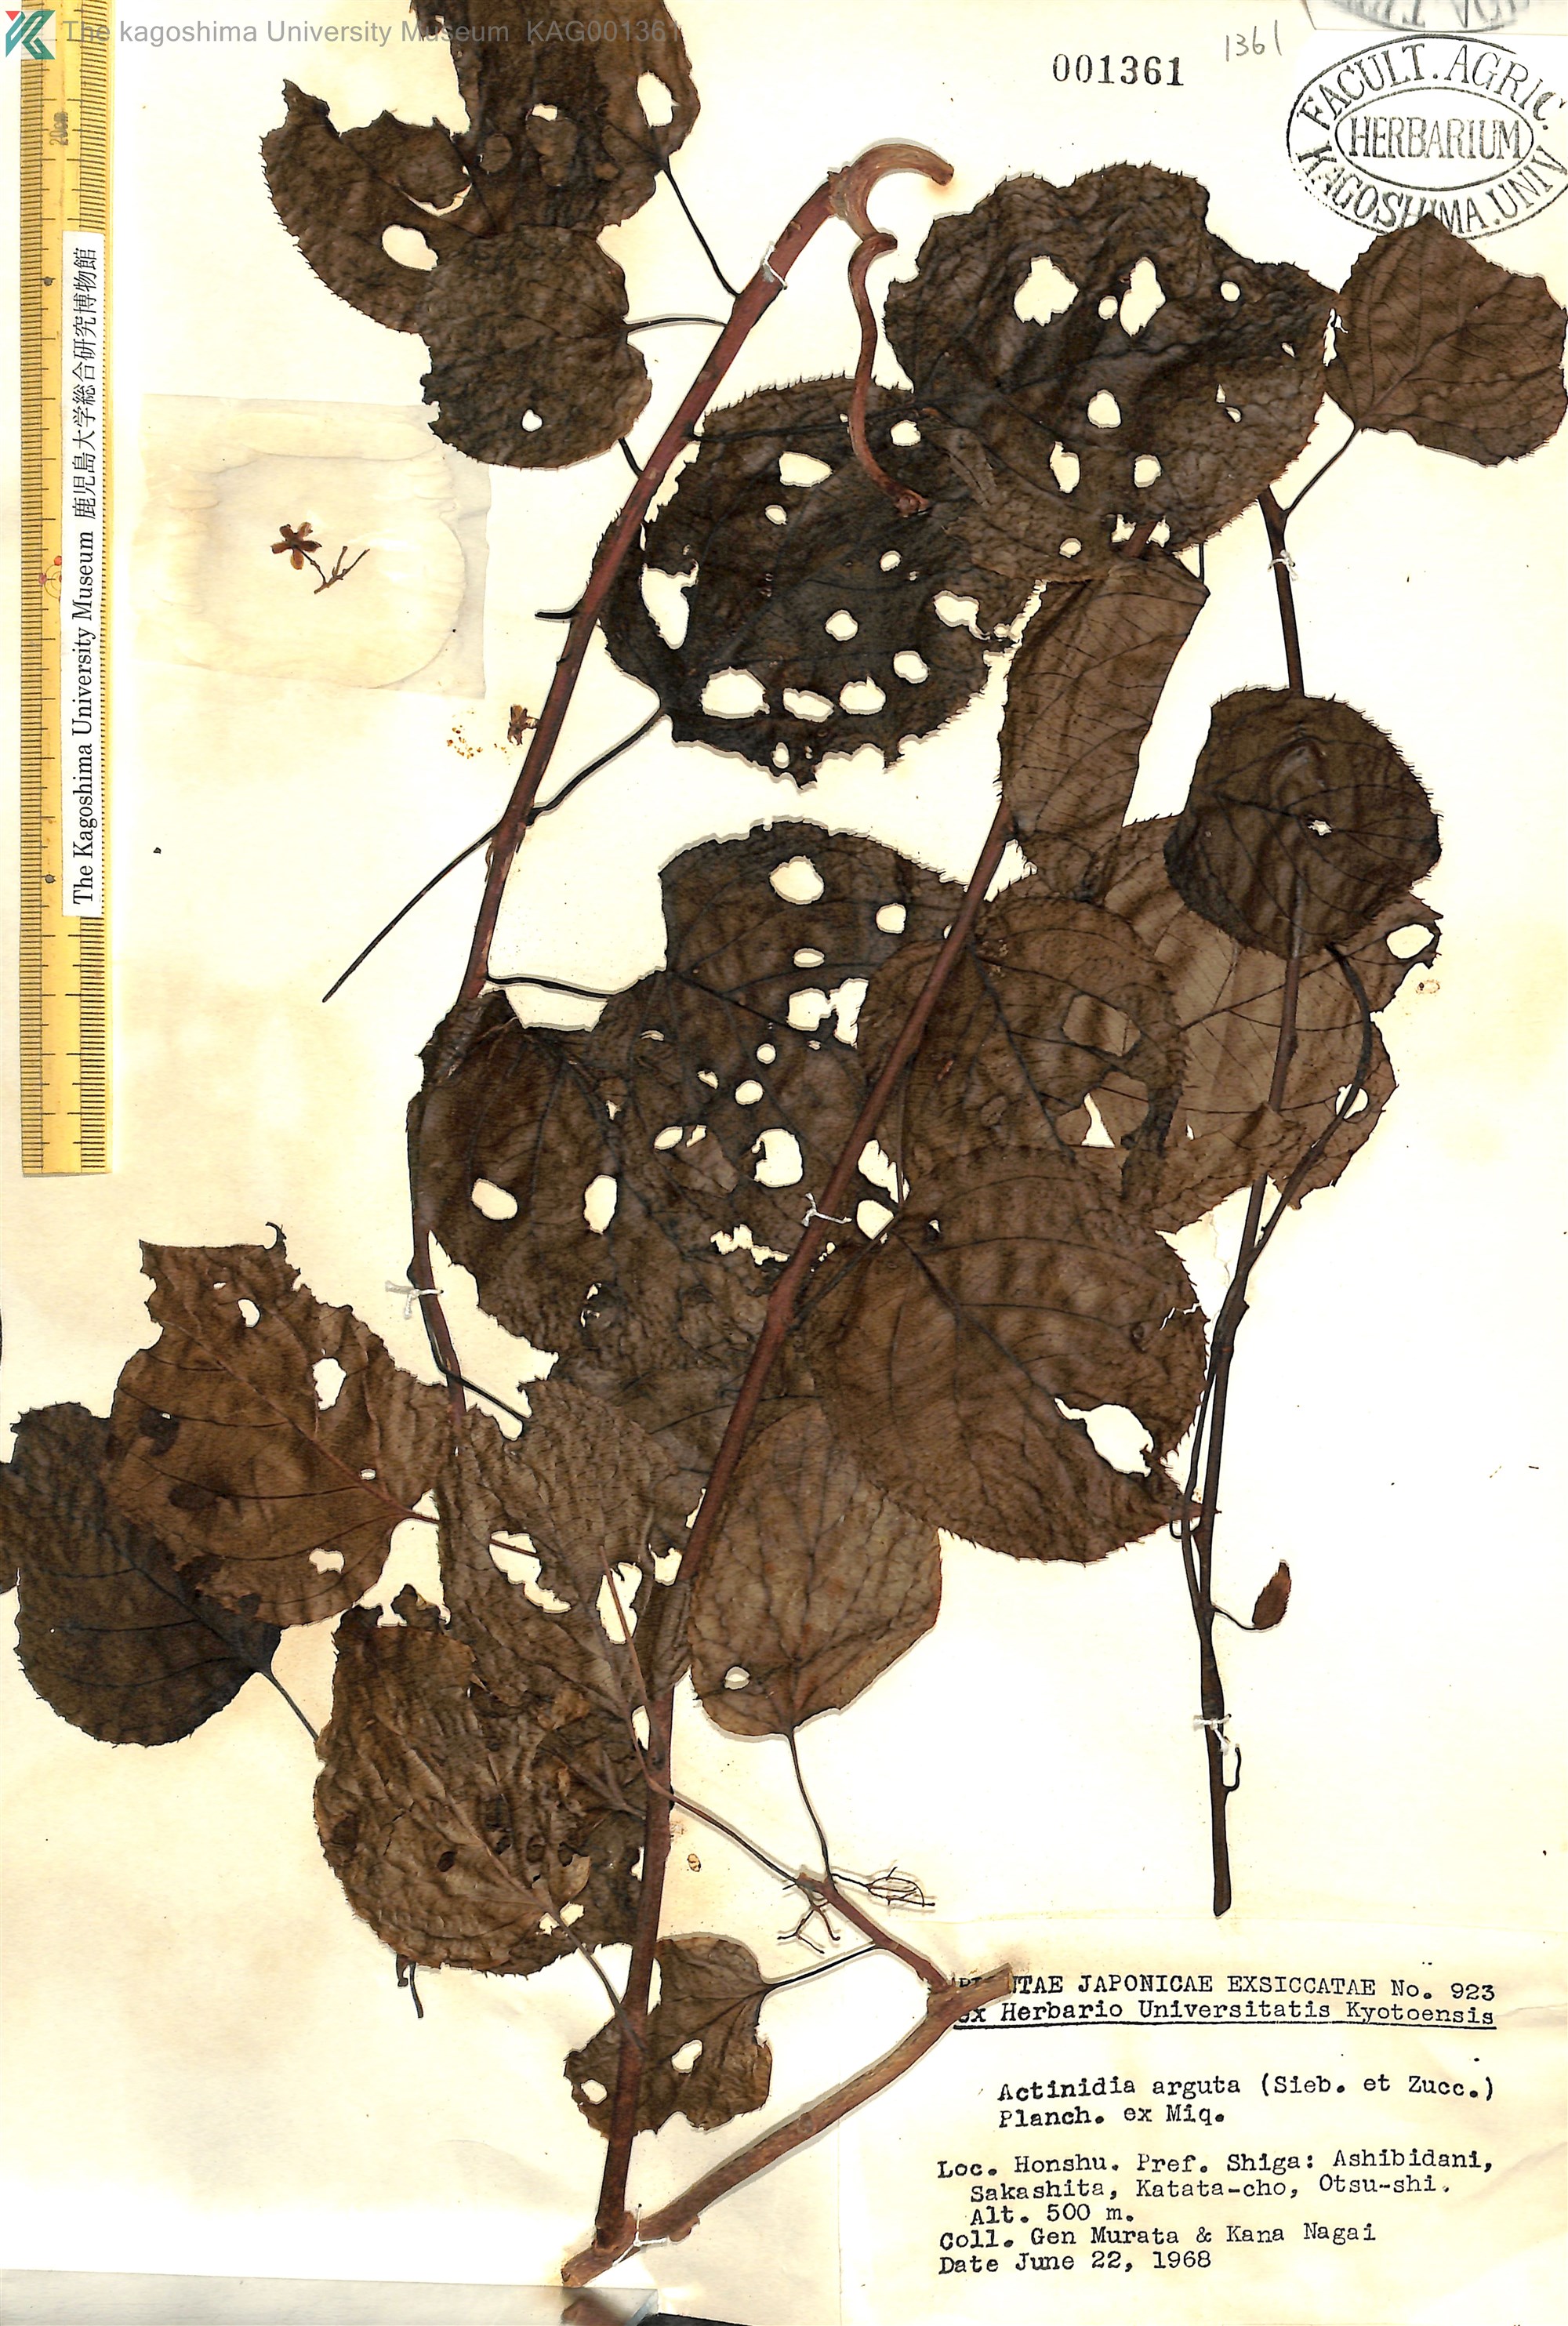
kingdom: Plantae
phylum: Tracheophyta
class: Magnoliopsida
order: Ericales
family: Actinidiaceae
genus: Actinidia
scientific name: Actinidia arguta
